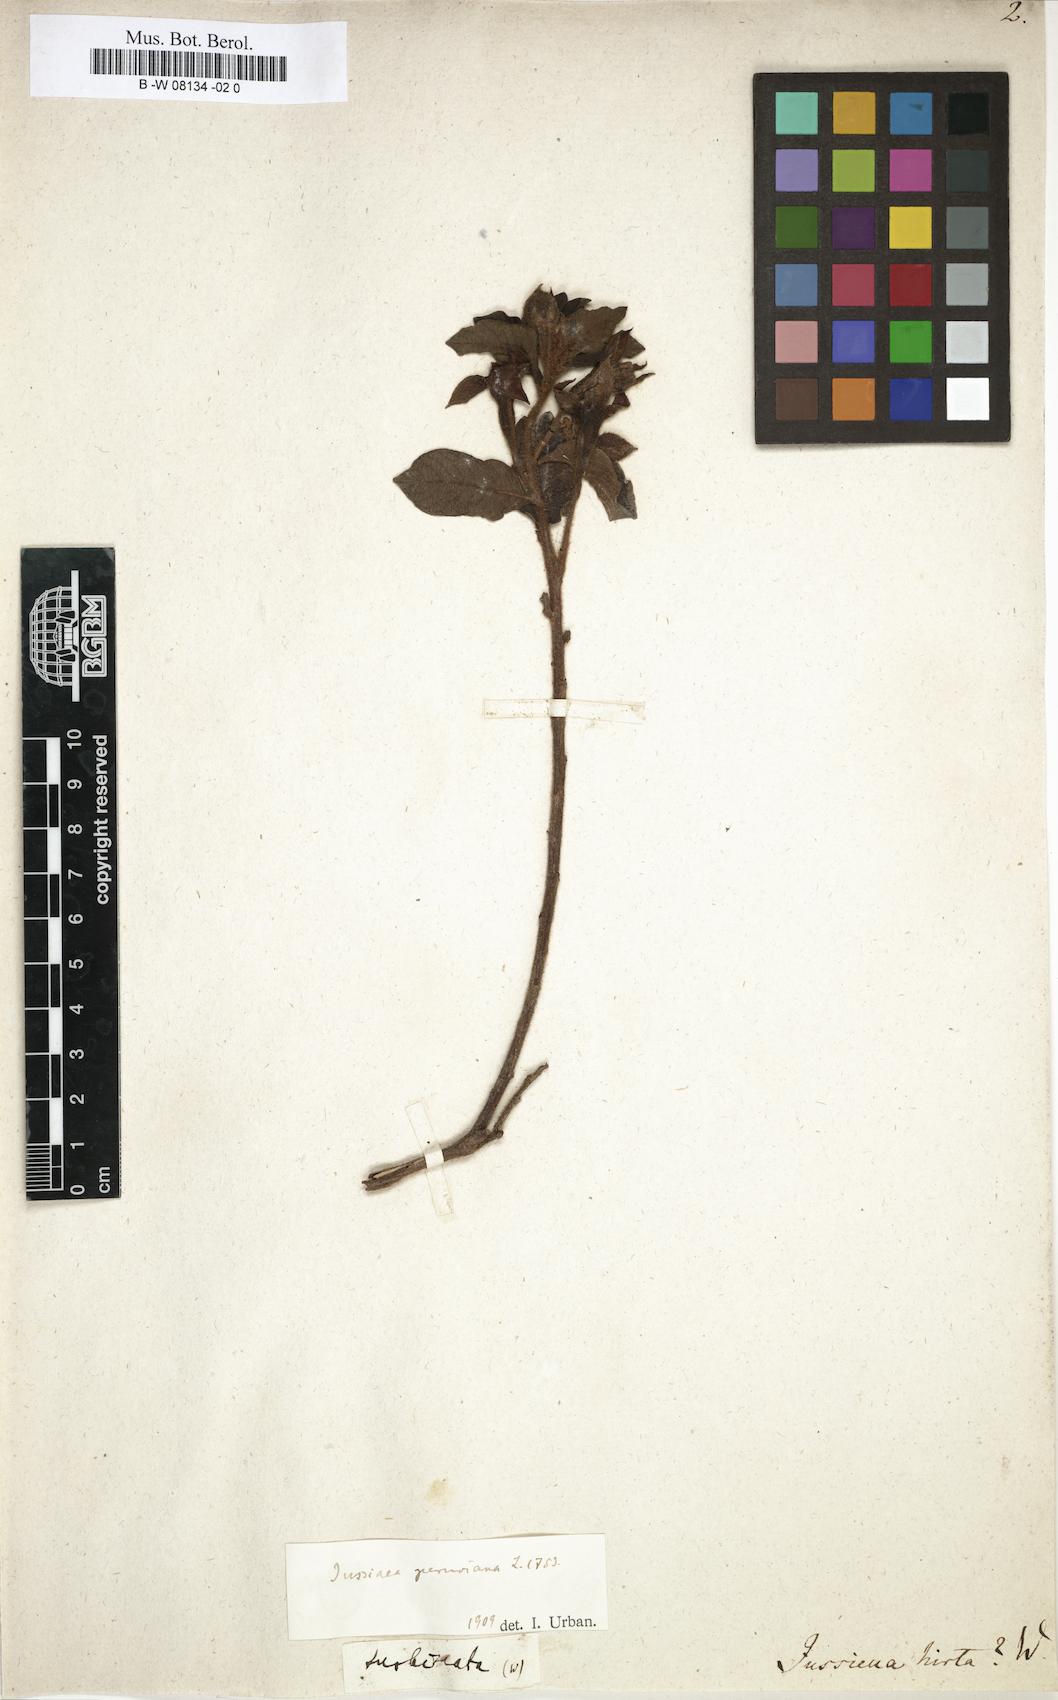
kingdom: Plantae
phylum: Tracheophyta
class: Magnoliopsida
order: Myrtales
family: Onagraceae
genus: Ludwigia
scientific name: Ludwigia peruviana
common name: Peruvian primrose-willow
